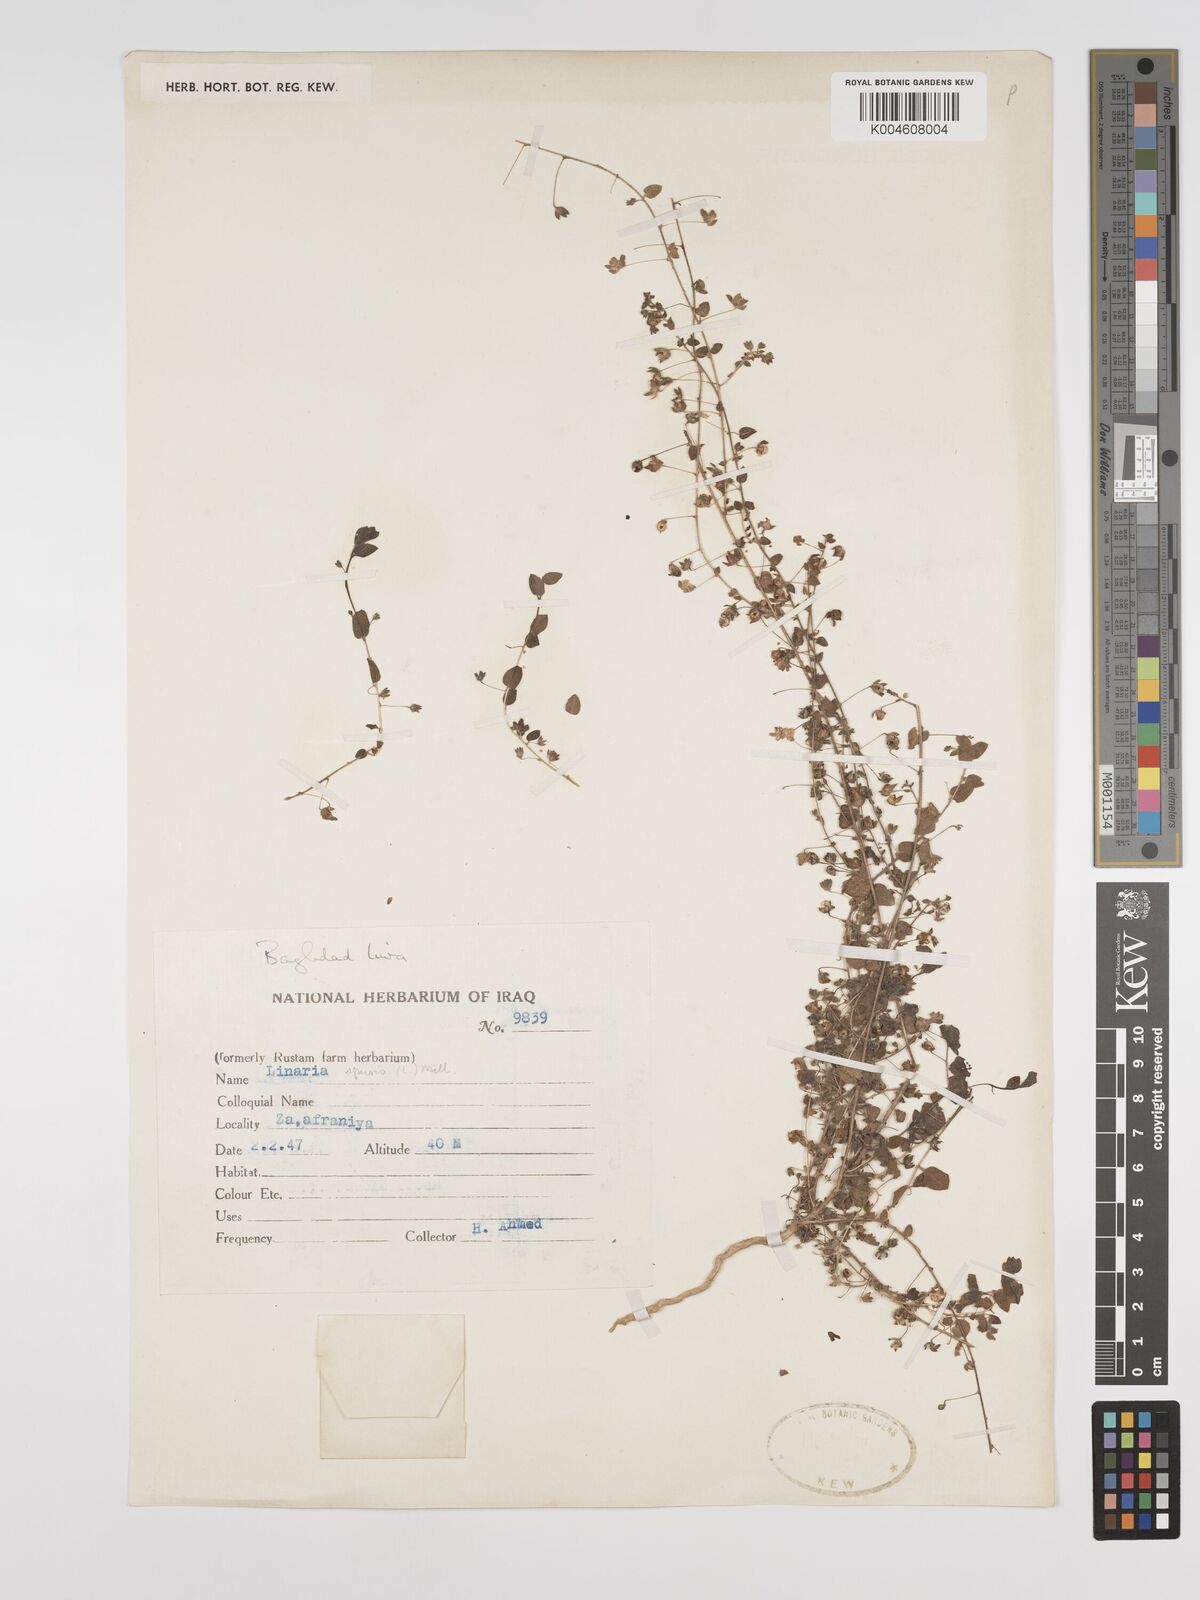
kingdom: Plantae
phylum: Tracheophyta
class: Magnoliopsida
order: Lamiales
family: Plantaginaceae
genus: Kickxia
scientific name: Kickxia spuria
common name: Round-leaved fluellen
